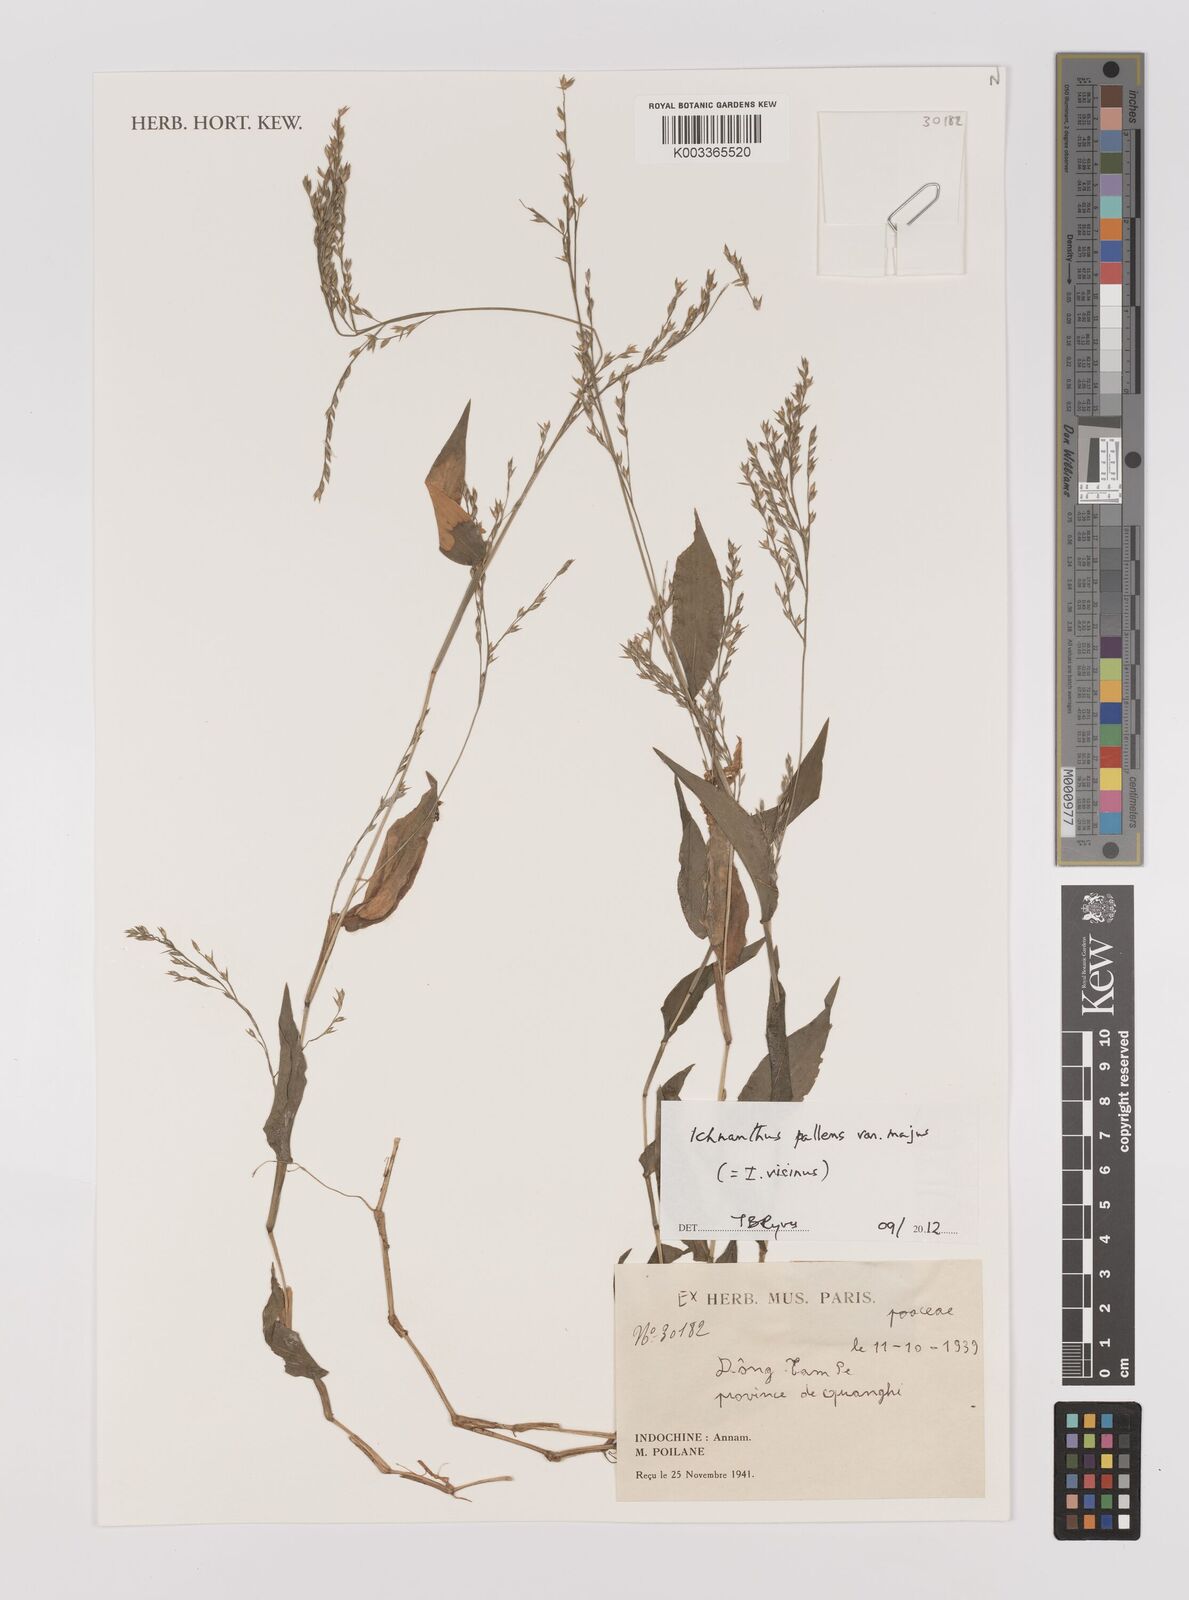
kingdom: Plantae
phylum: Tracheophyta
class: Liliopsida
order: Poales
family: Poaceae
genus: Ichnanthus
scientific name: Ichnanthus pallens
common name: Water grass
